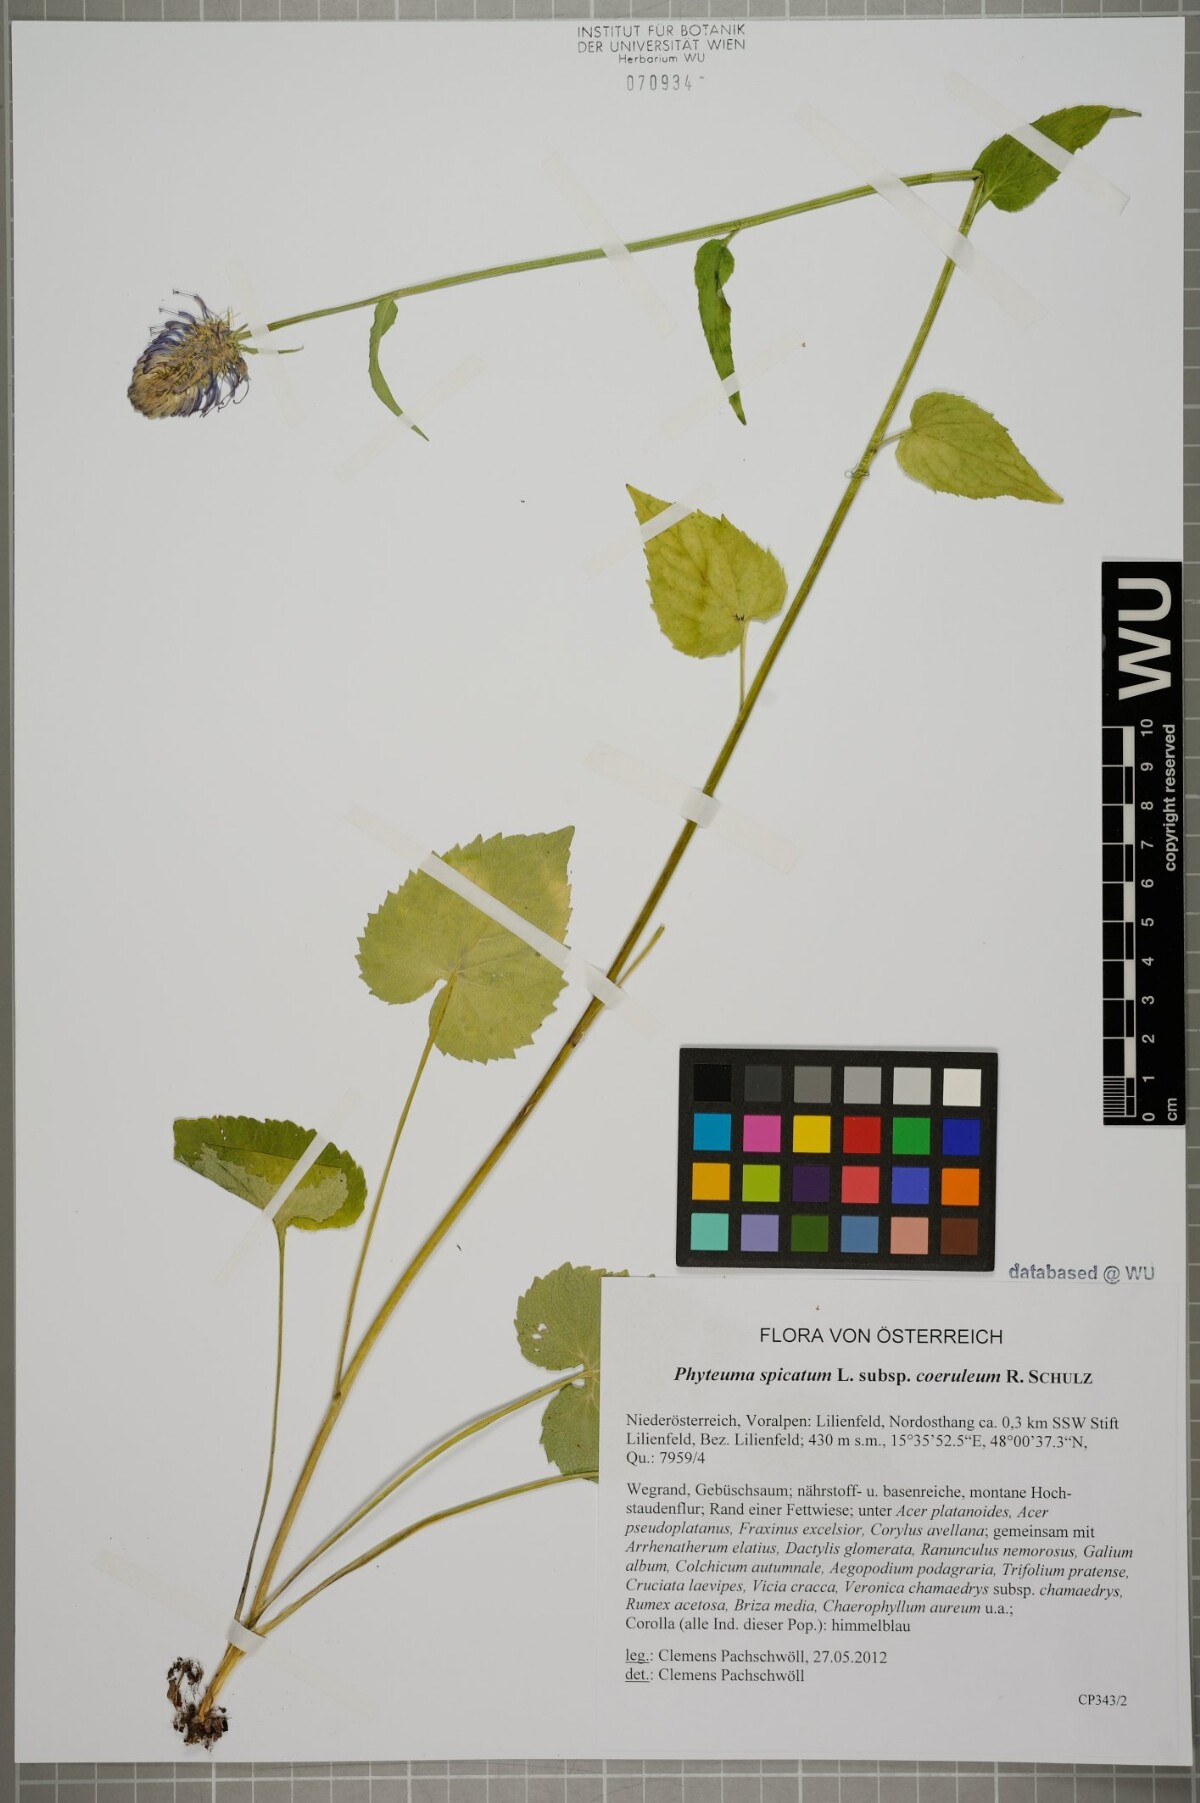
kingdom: Plantae
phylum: Tracheophyta
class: Magnoliopsida
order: Asterales
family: Campanulaceae
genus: Phyteuma
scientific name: Phyteuma spicatum
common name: Spiked rampion
